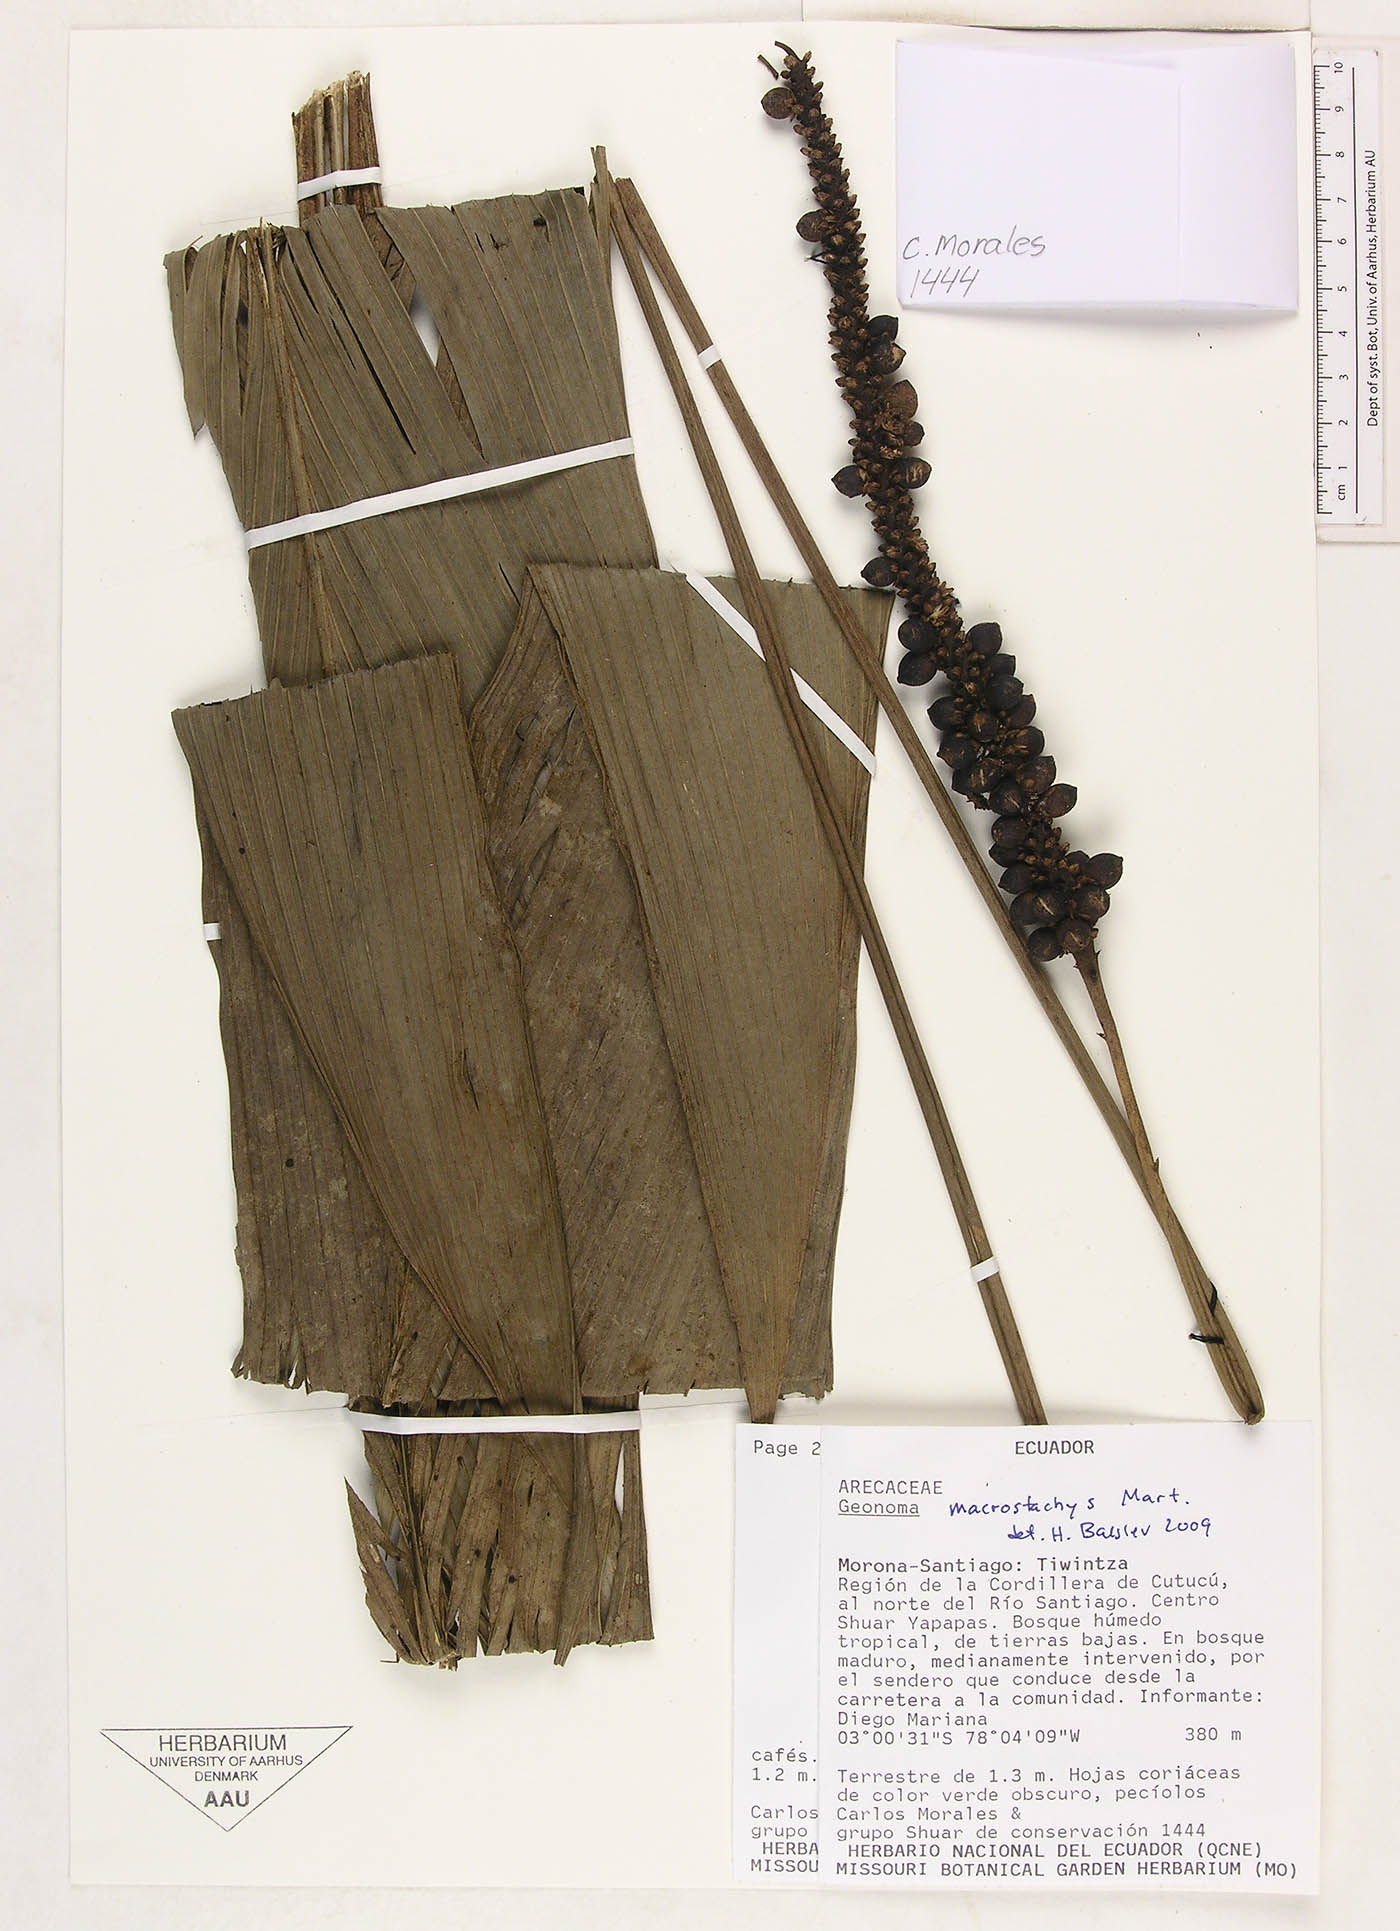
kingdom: Plantae
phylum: Tracheophyta
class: Liliopsida
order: Arecales
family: Arecaceae
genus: Geonoma
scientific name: Geonoma macrostachys
